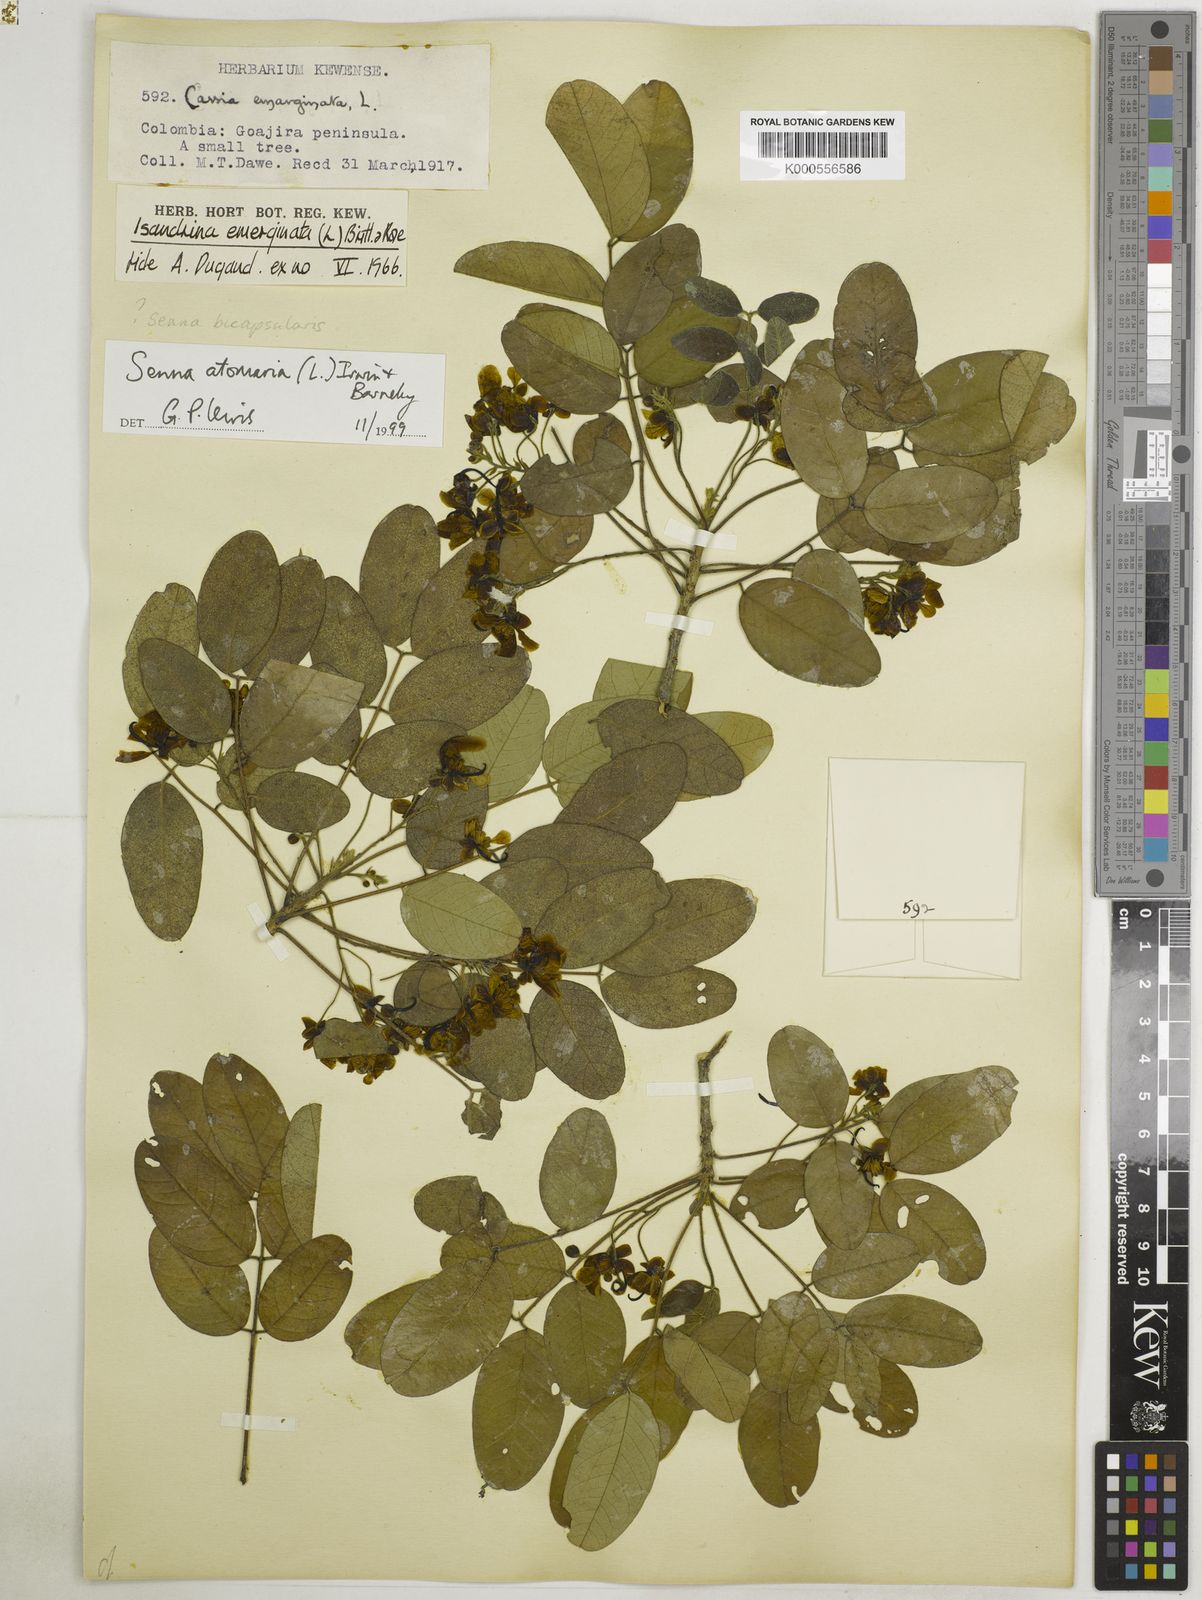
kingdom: Plantae
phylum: Tracheophyta
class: Magnoliopsida
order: Fabales
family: Fabaceae
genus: Senna
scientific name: Senna atomaria
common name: Flor de san jose
